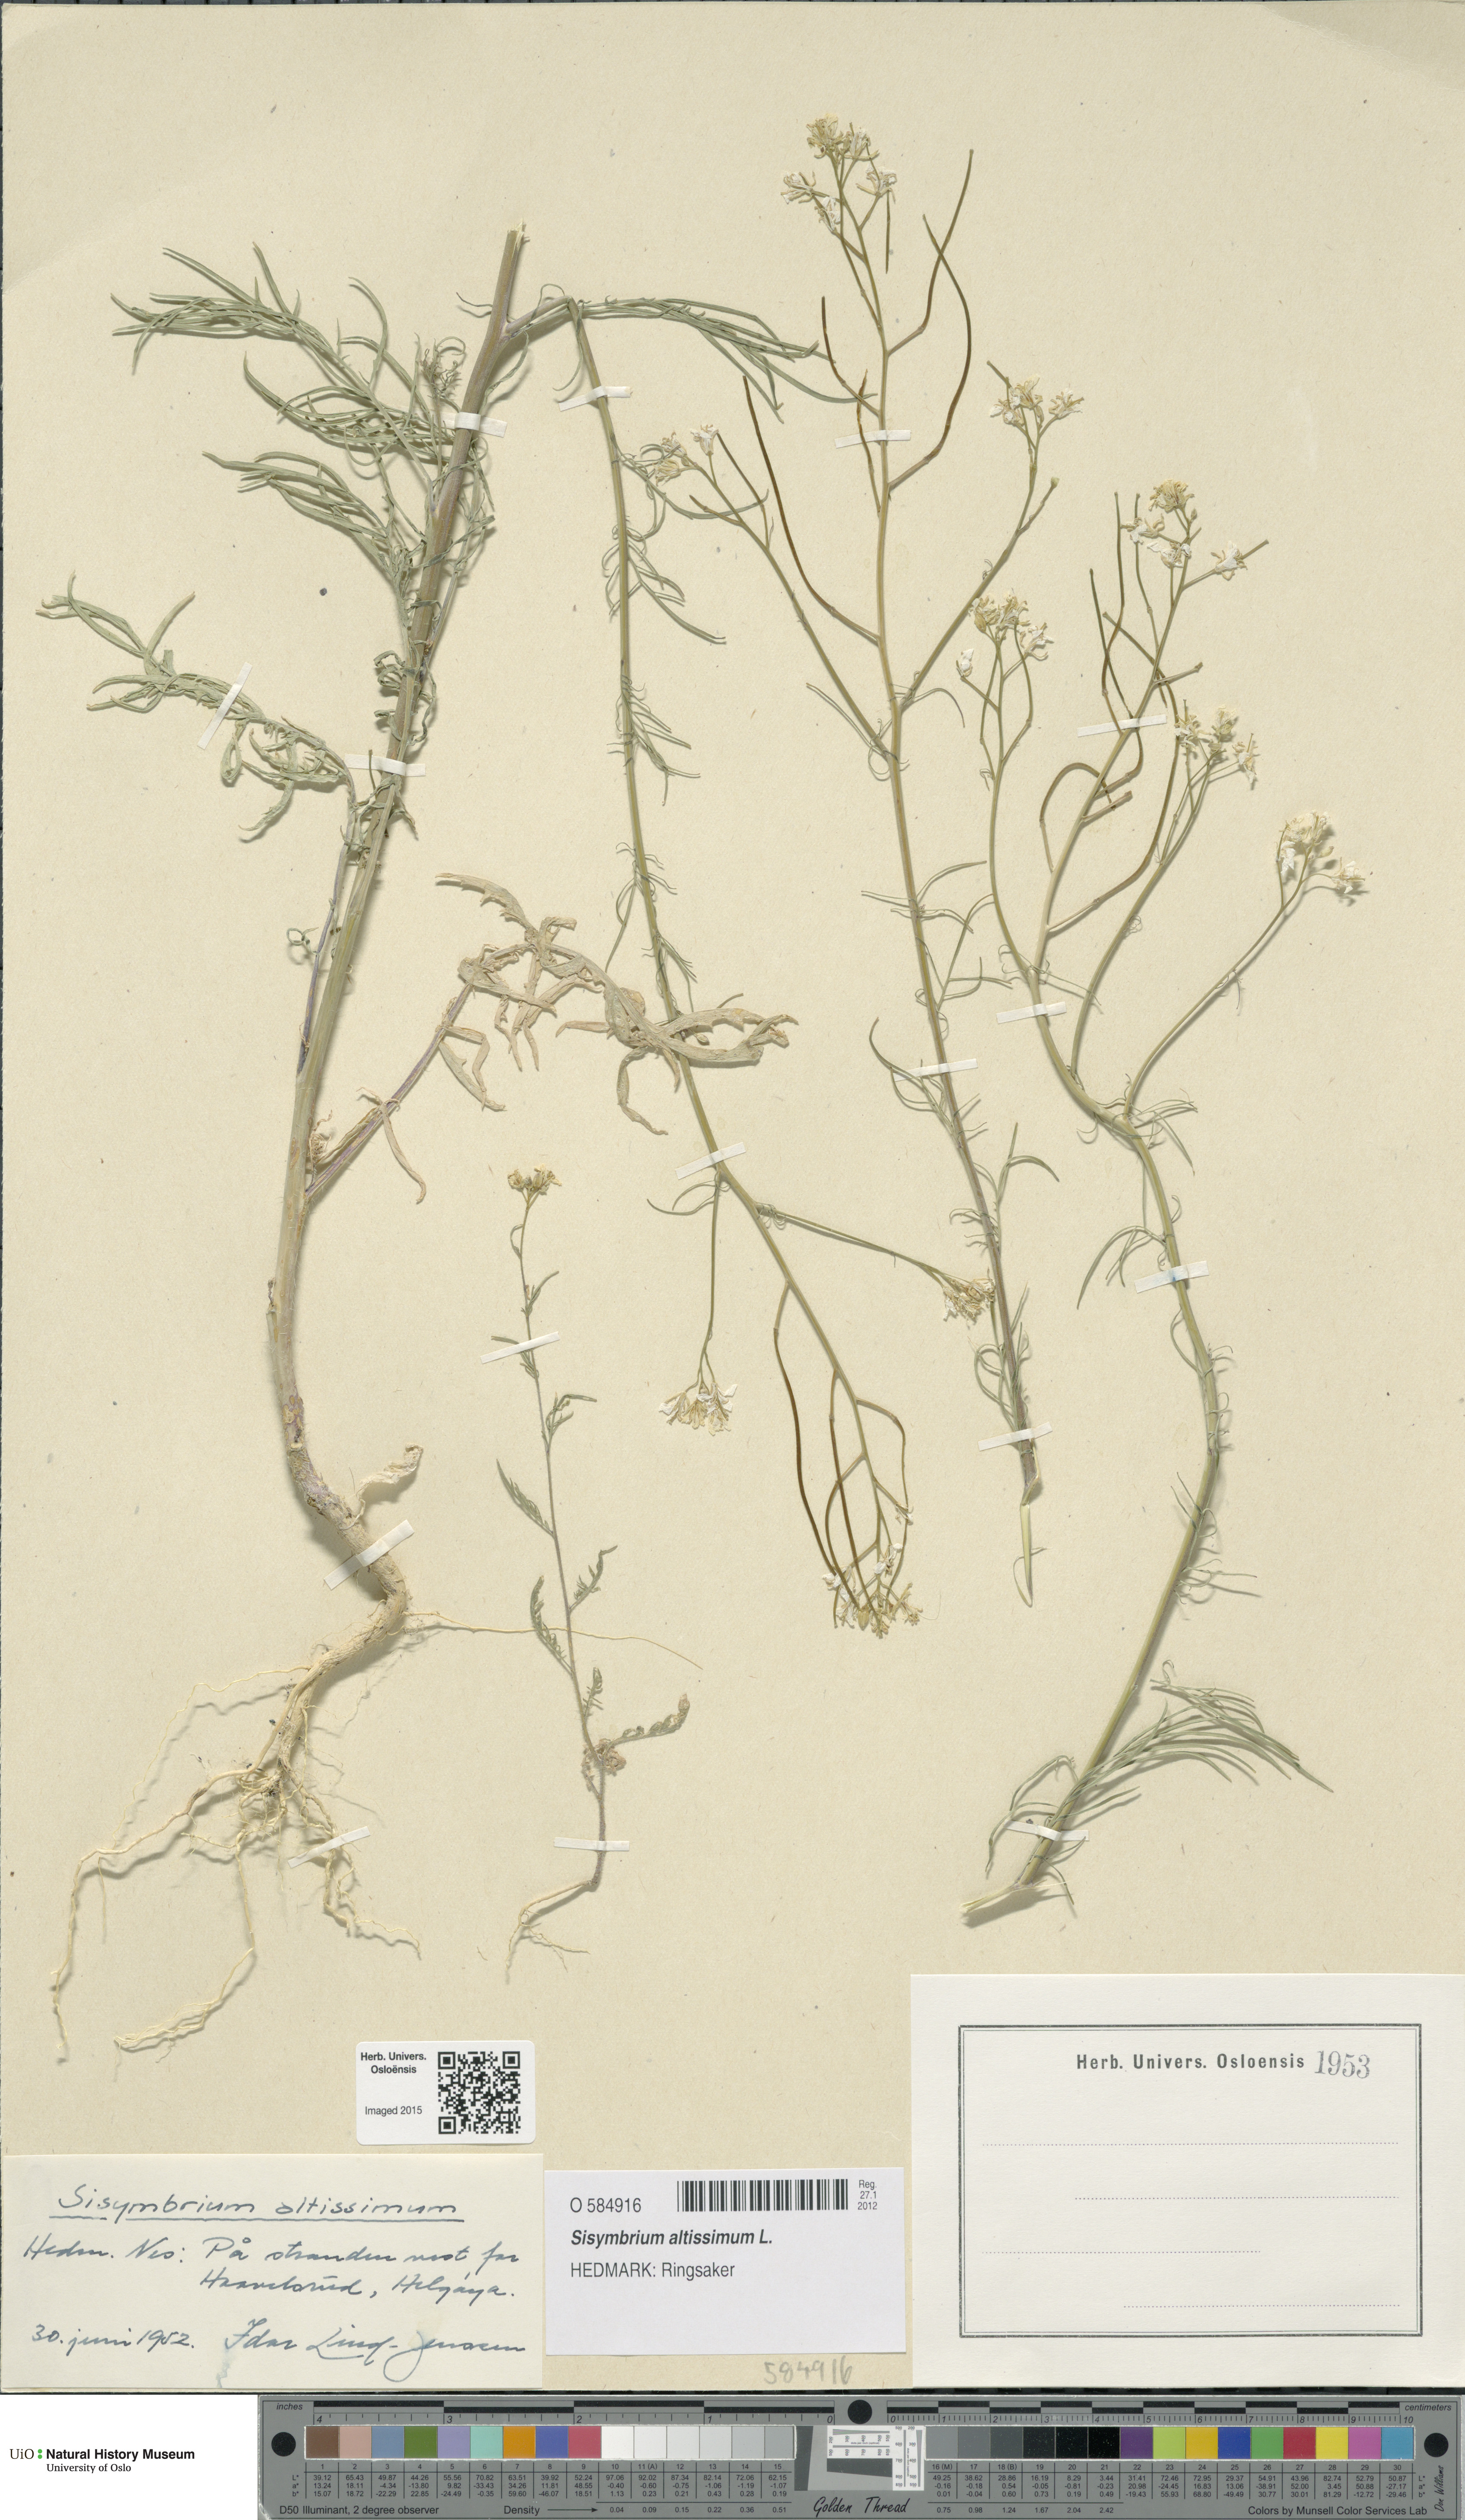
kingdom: Plantae
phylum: Tracheophyta
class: Magnoliopsida
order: Brassicales
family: Brassicaceae
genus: Sisymbrium
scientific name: Sisymbrium altissimum
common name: Tall rocket
